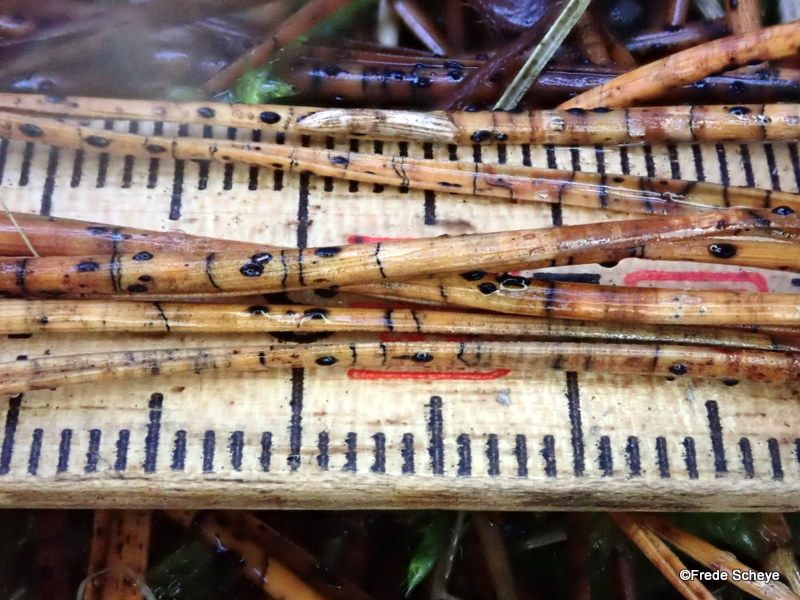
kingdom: Fungi
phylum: Ascomycota
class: Leotiomycetes
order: Rhytismatales
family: Rhytismataceae
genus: Lophodermium
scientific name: Lophodermium pinastri
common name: fyrre-fureplet
